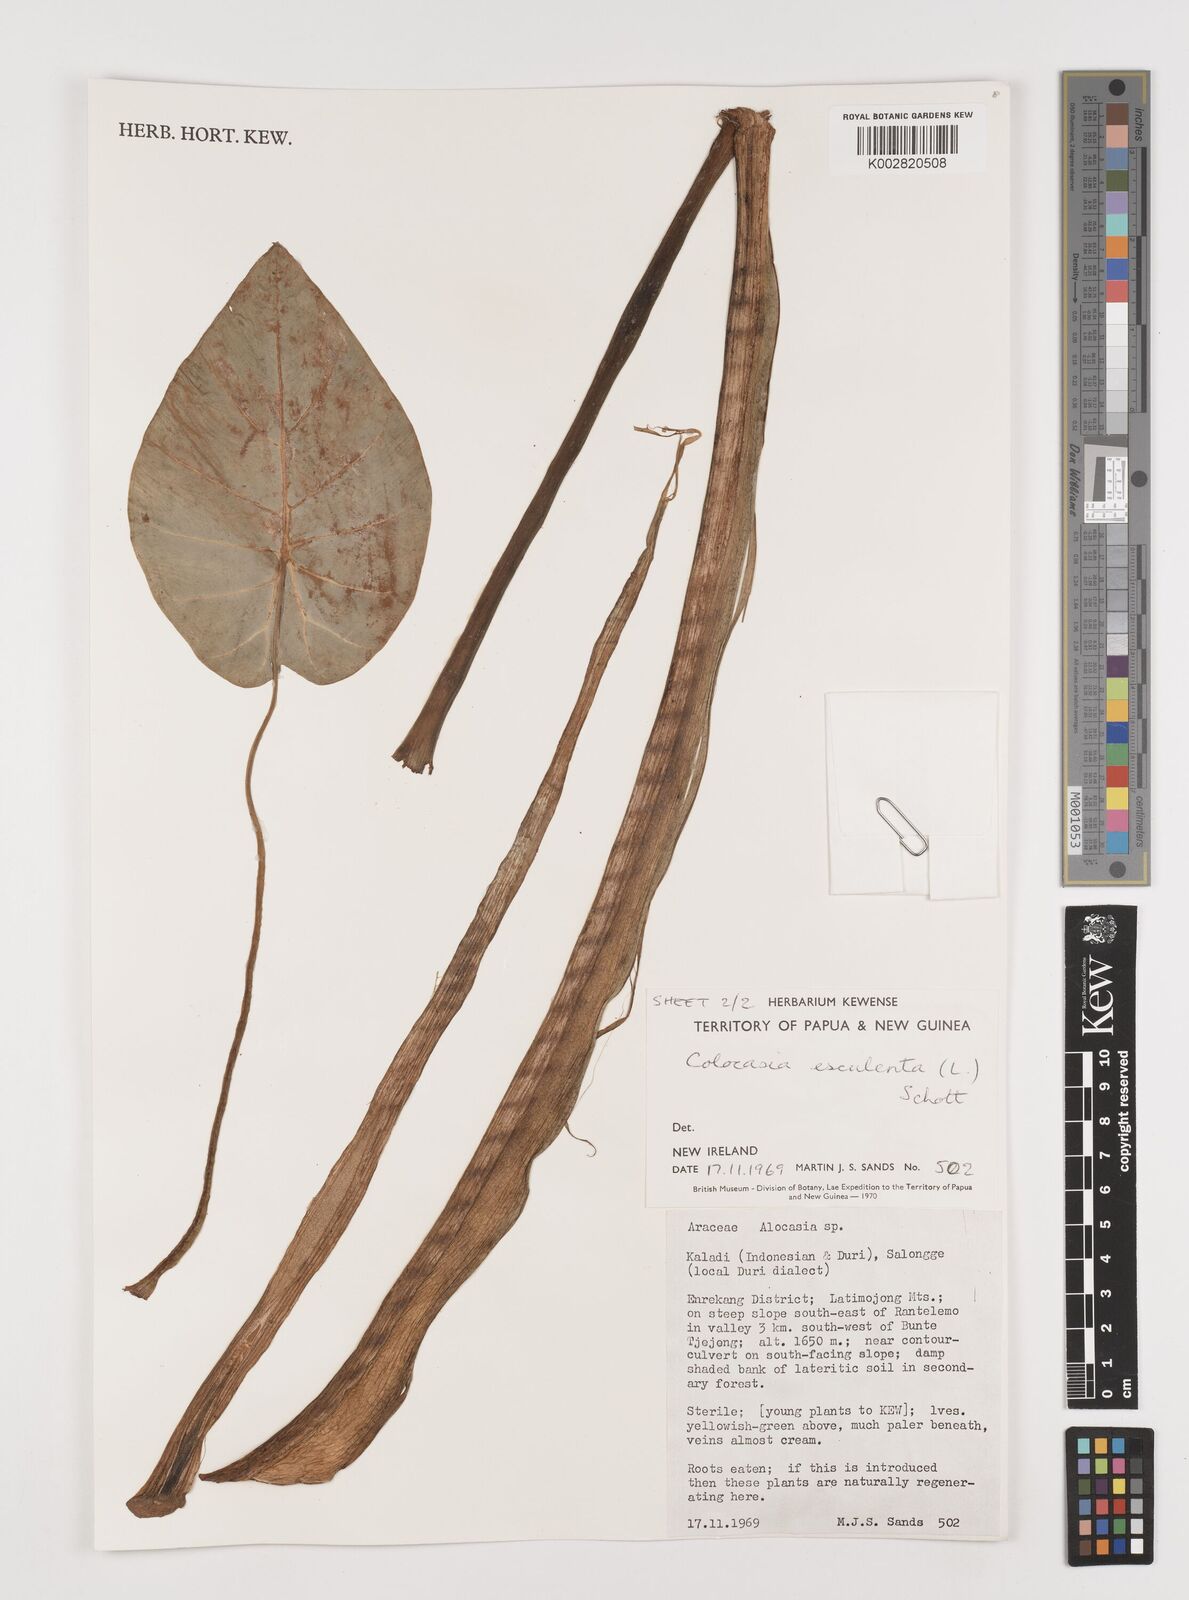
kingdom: Plantae
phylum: Tracheophyta
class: Liliopsida
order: Alismatales
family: Araceae
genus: Colocasia
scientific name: Colocasia esculenta
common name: Taro
